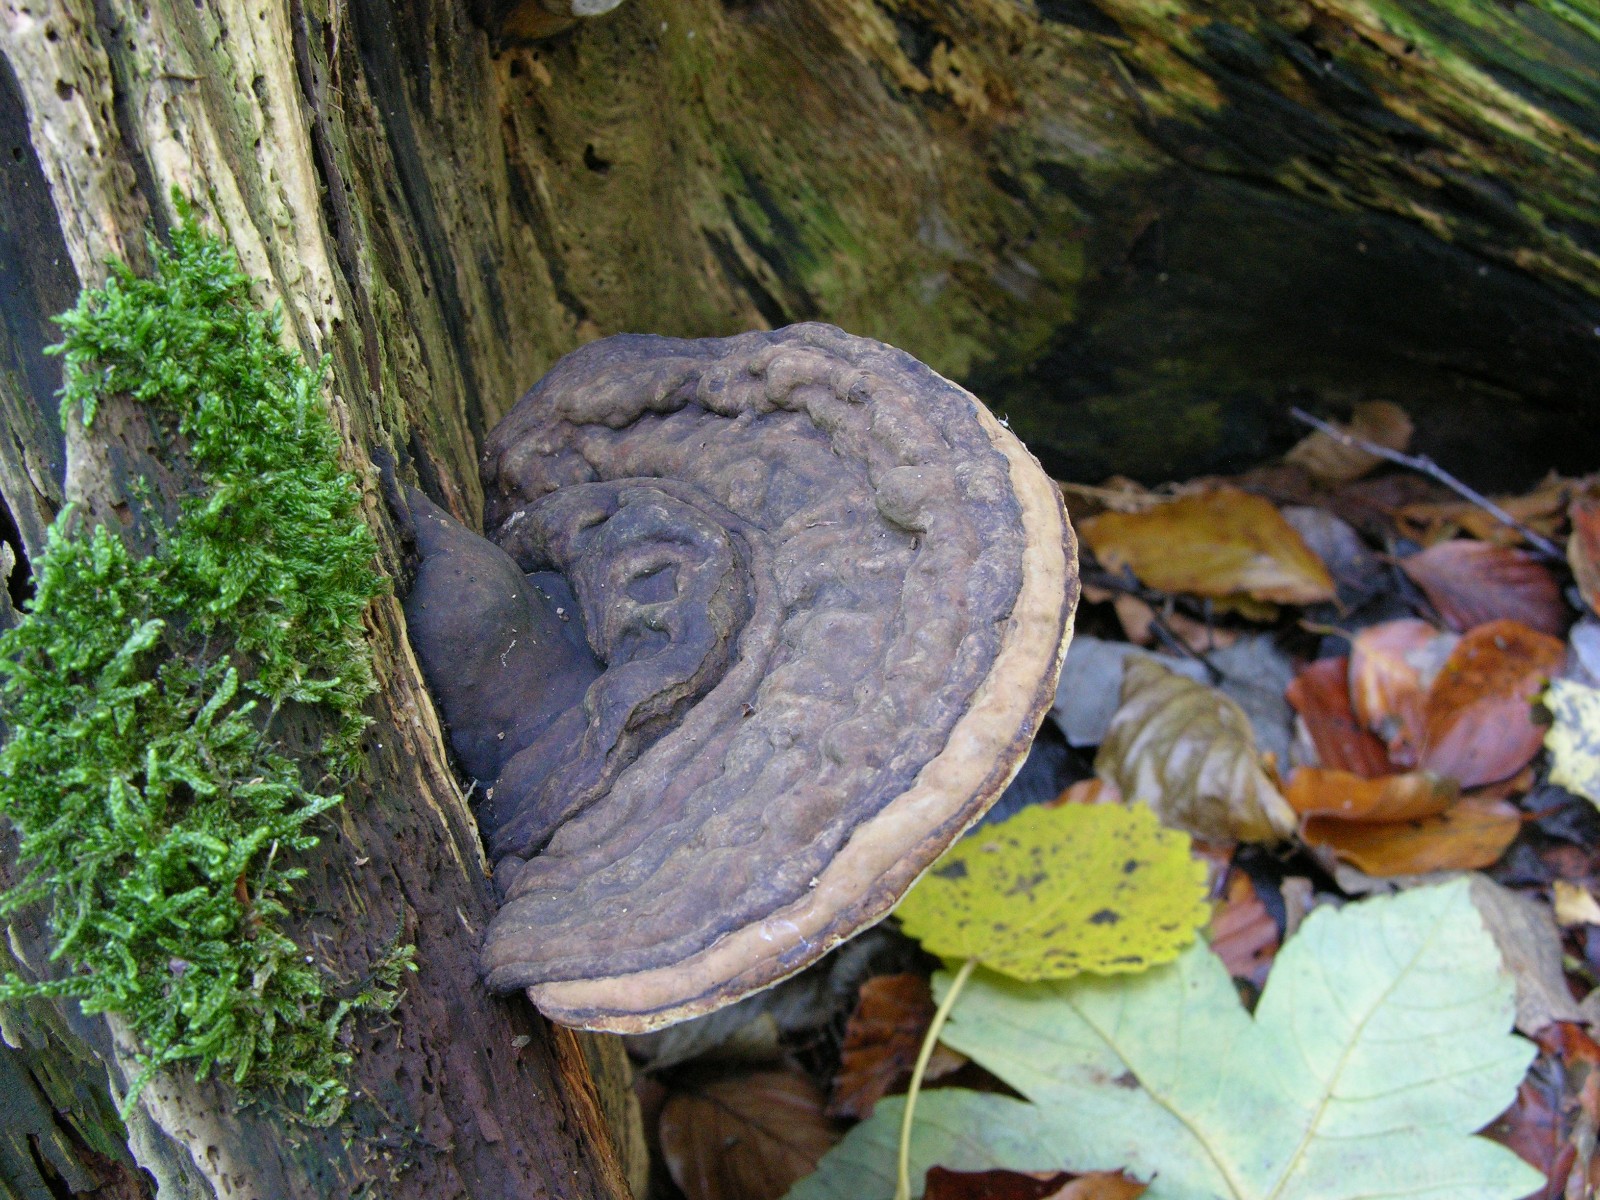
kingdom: Fungi
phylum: Basidiomycota
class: Agaricomycetes
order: Polyporales
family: Polyporaceae
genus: Ganoderma
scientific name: Ganoderma applanatum
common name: flad lakporesvamp
